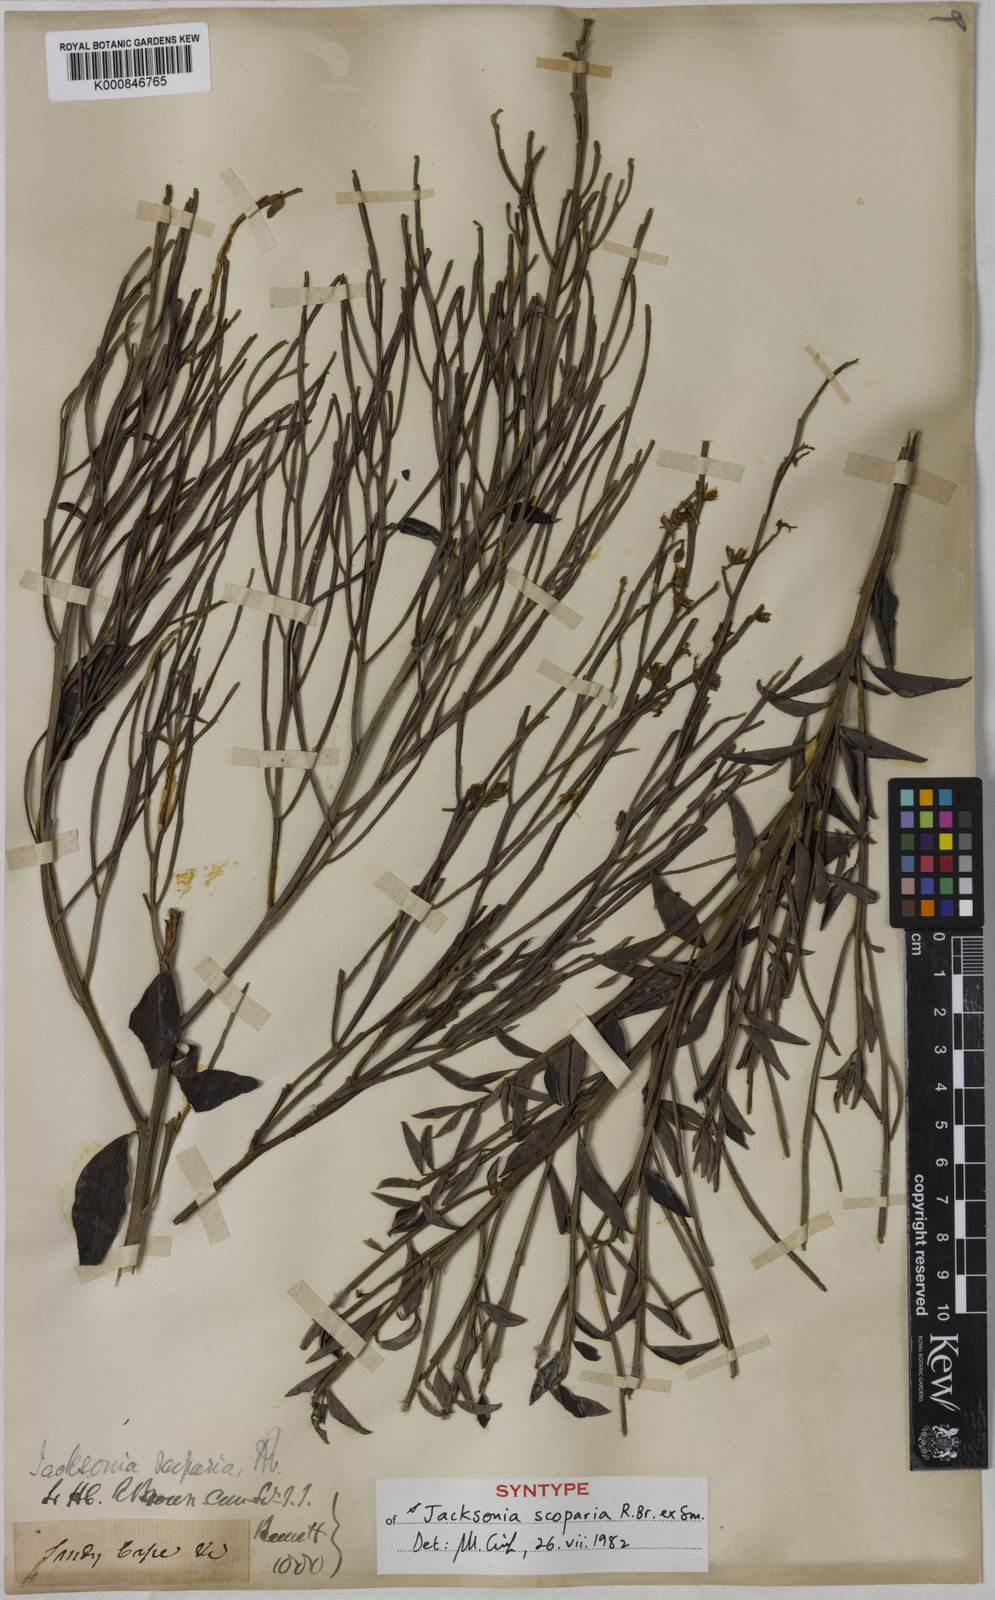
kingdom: Plantae
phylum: Tracheophyta
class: Magnoliopsida
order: Fabales
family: Fabaceae
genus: Jacksonia
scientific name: Jacksonia
